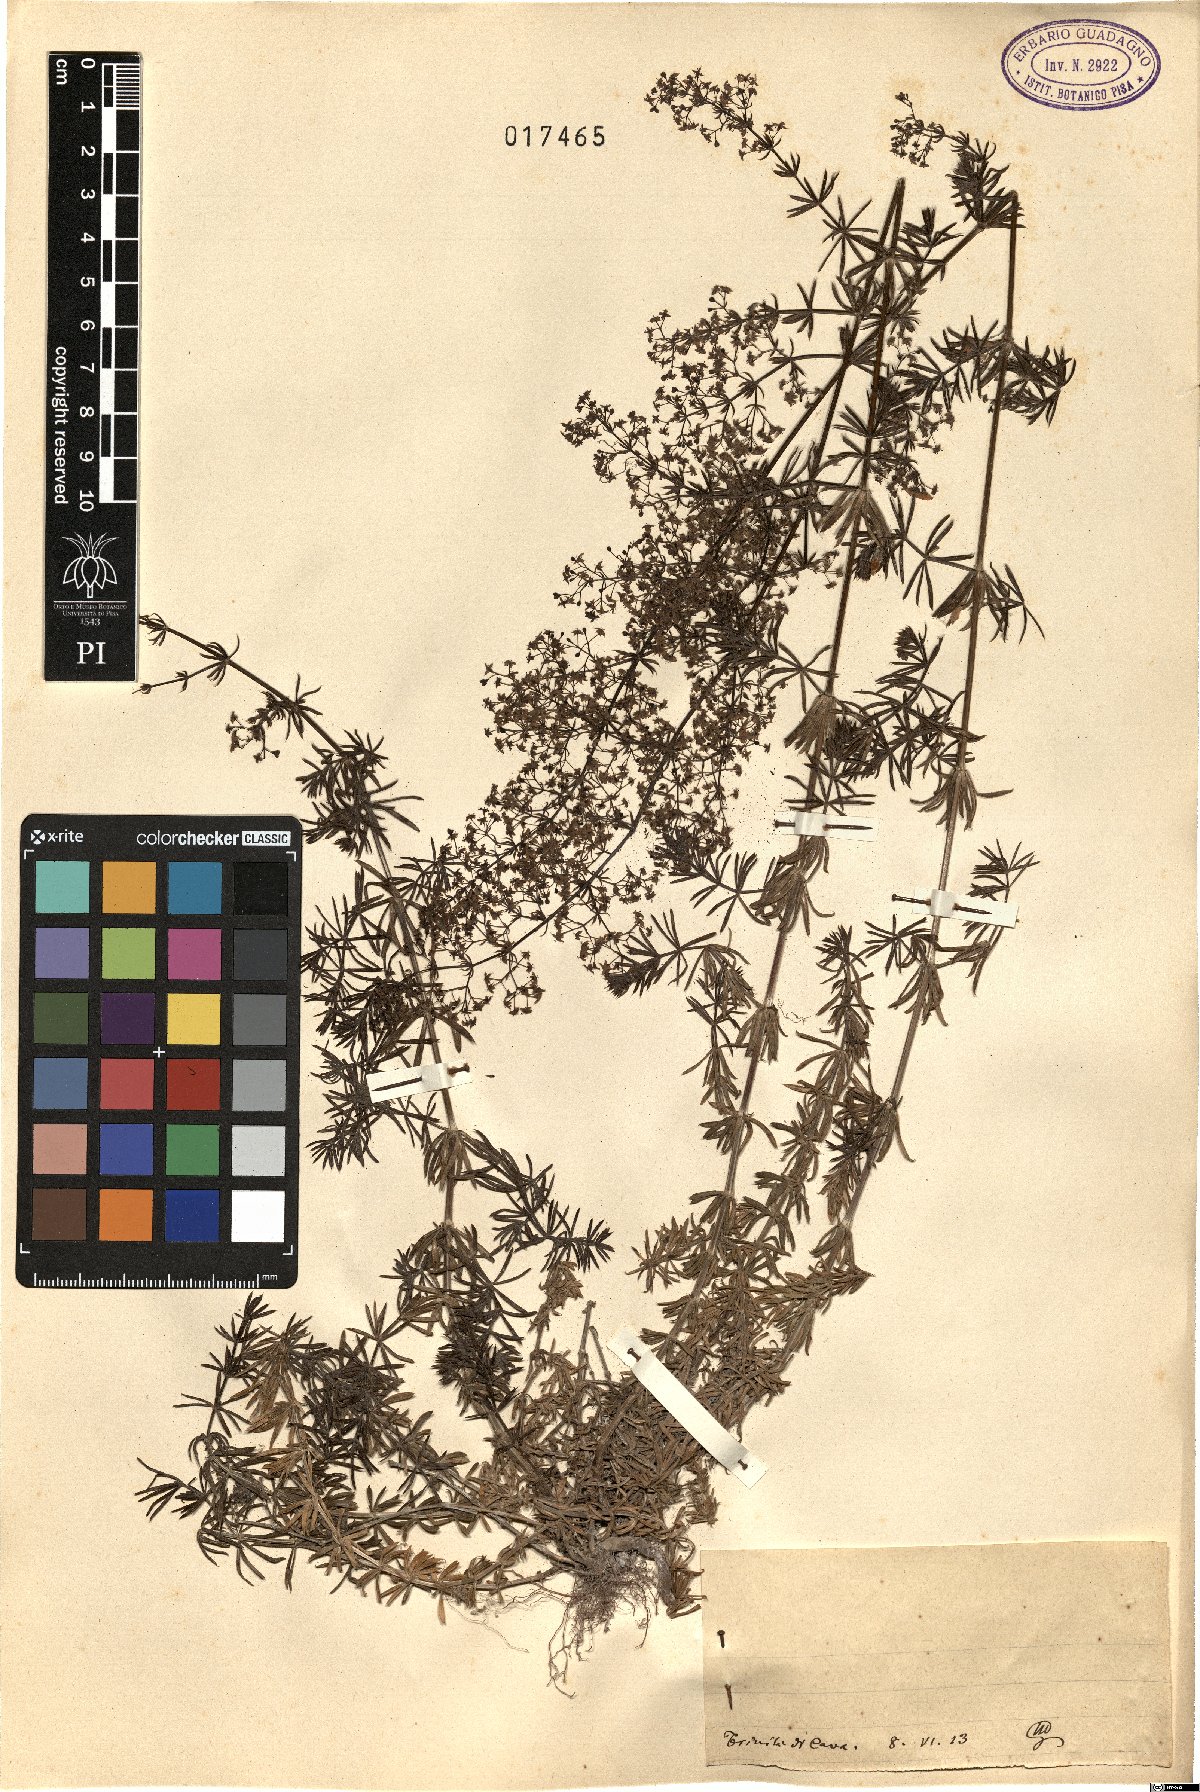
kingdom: Plantae
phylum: Tracheophyta
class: Magnoliopsida
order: Gentianales
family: Rubiaceae
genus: Galium
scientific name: Galium
